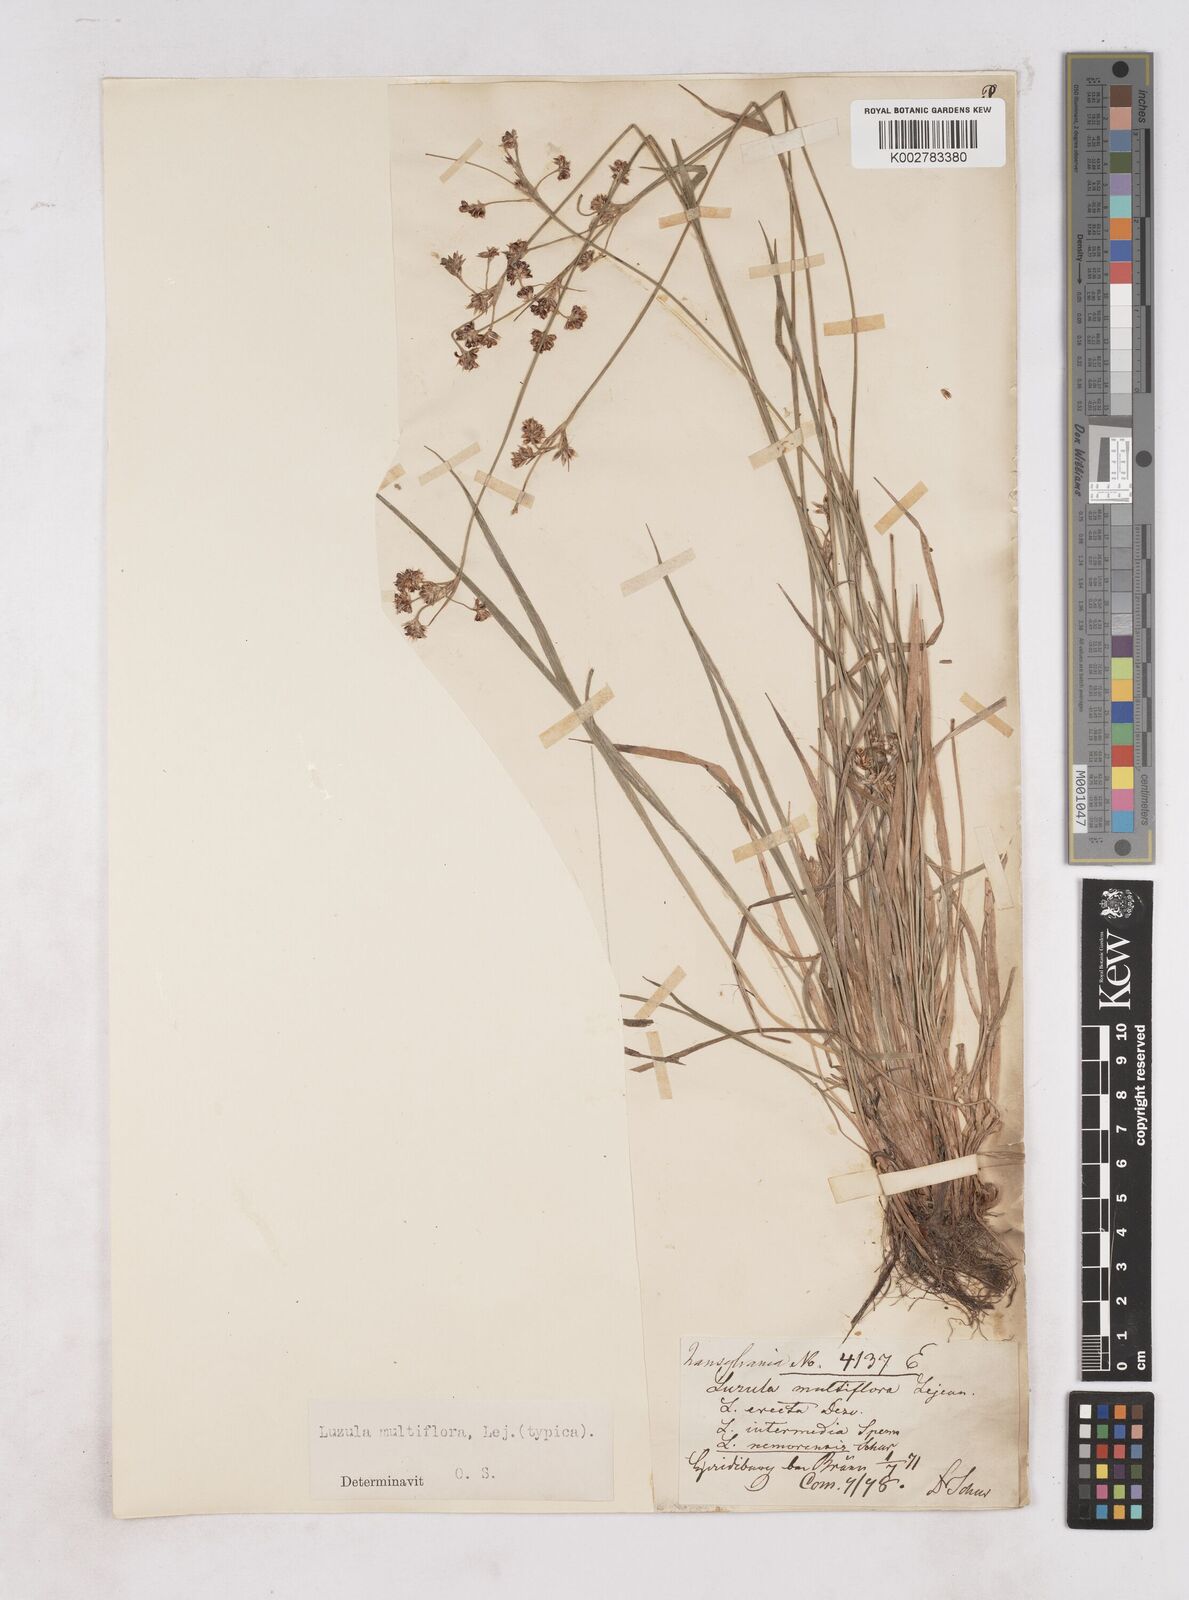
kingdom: Plantae
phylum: Tracheophyta
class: Liliopsida
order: Poales
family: Juncaceae
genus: Luzula
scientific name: Luzula multiflora
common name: Heath wood-rush
